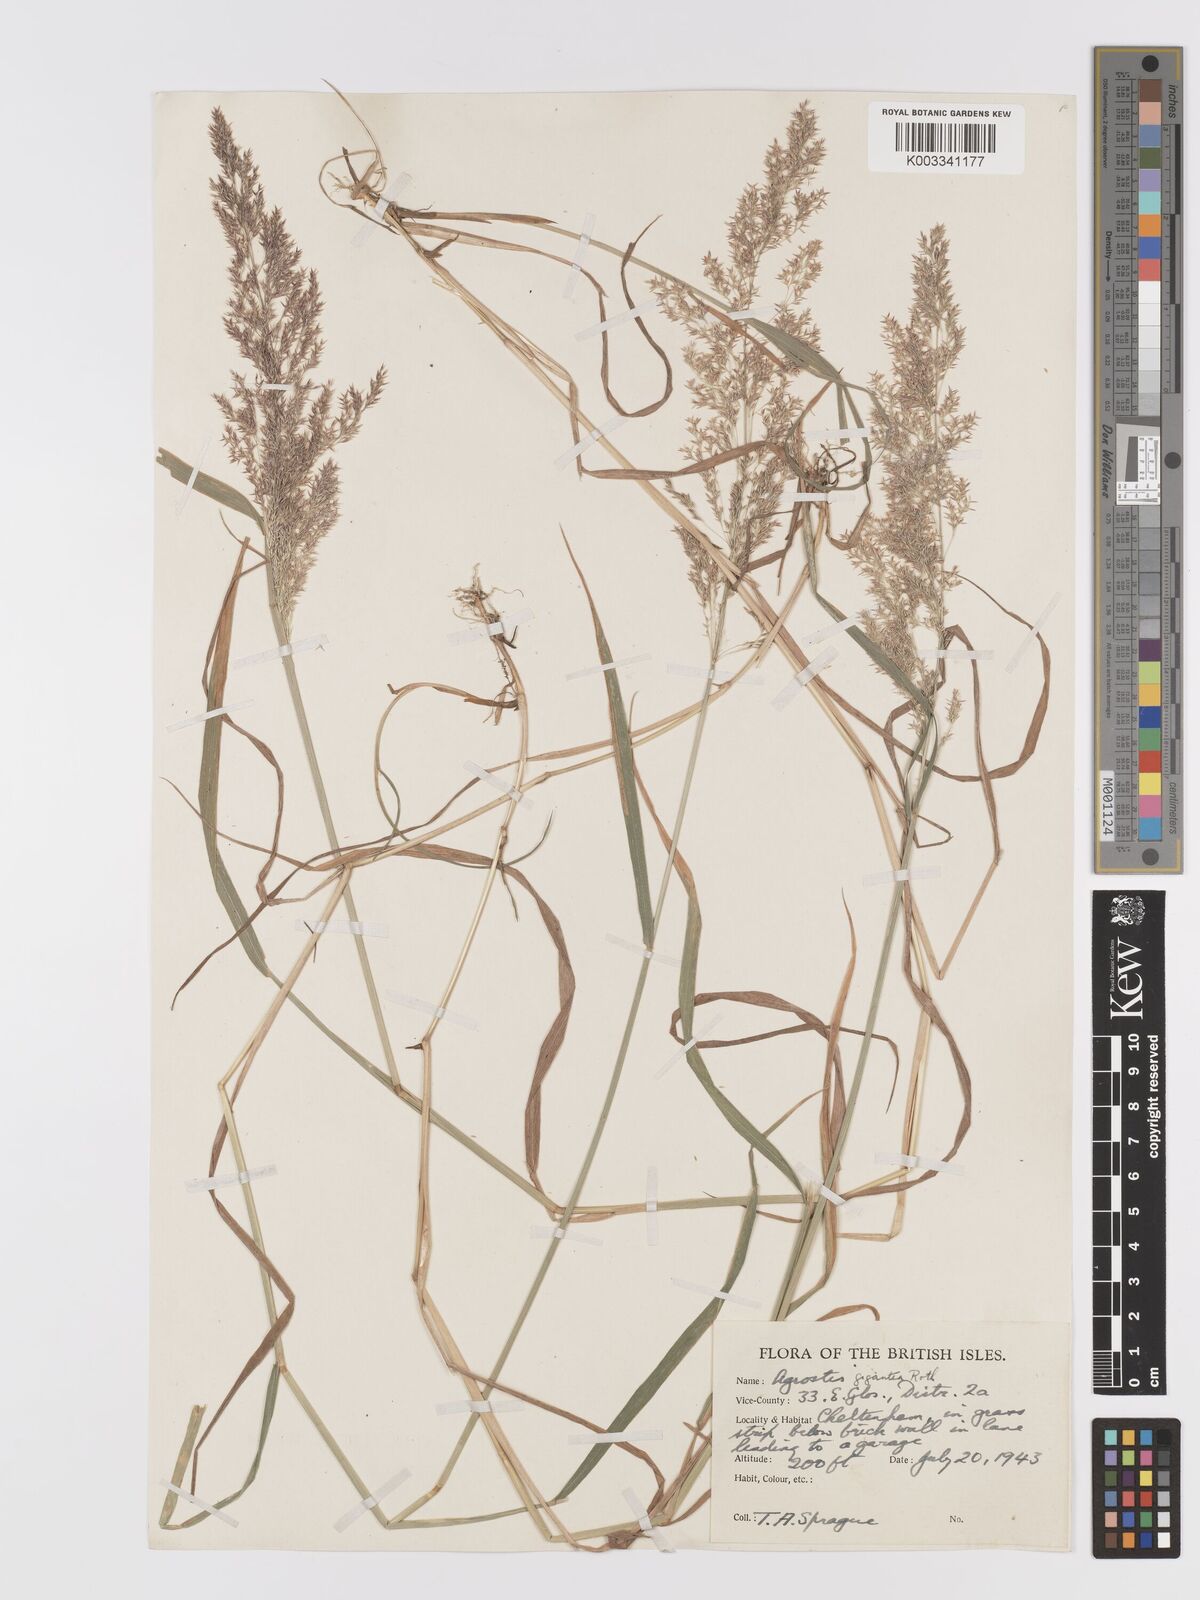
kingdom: Plantae
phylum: Tracheophyta
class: Liliopsida
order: Poales
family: Poaceae
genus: Agrostis
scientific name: Agrostis gigantea
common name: Black bent
